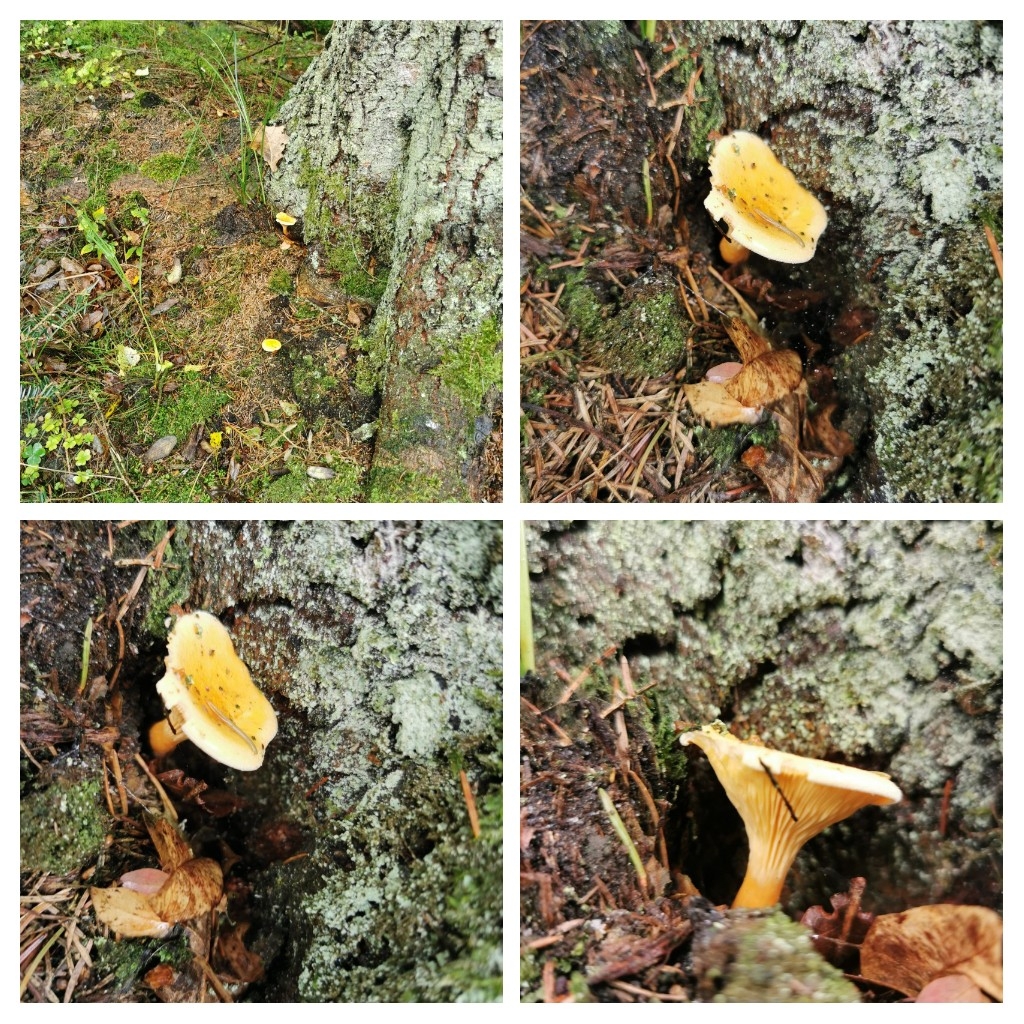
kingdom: Fungi
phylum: Basidiomycota
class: Agaricomycetes
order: Boletales
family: Hygrophoropsidaceae
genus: Hygrophoropsis
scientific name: Hygrophoropsis aurantiaca
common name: almindelig orangekantarel
